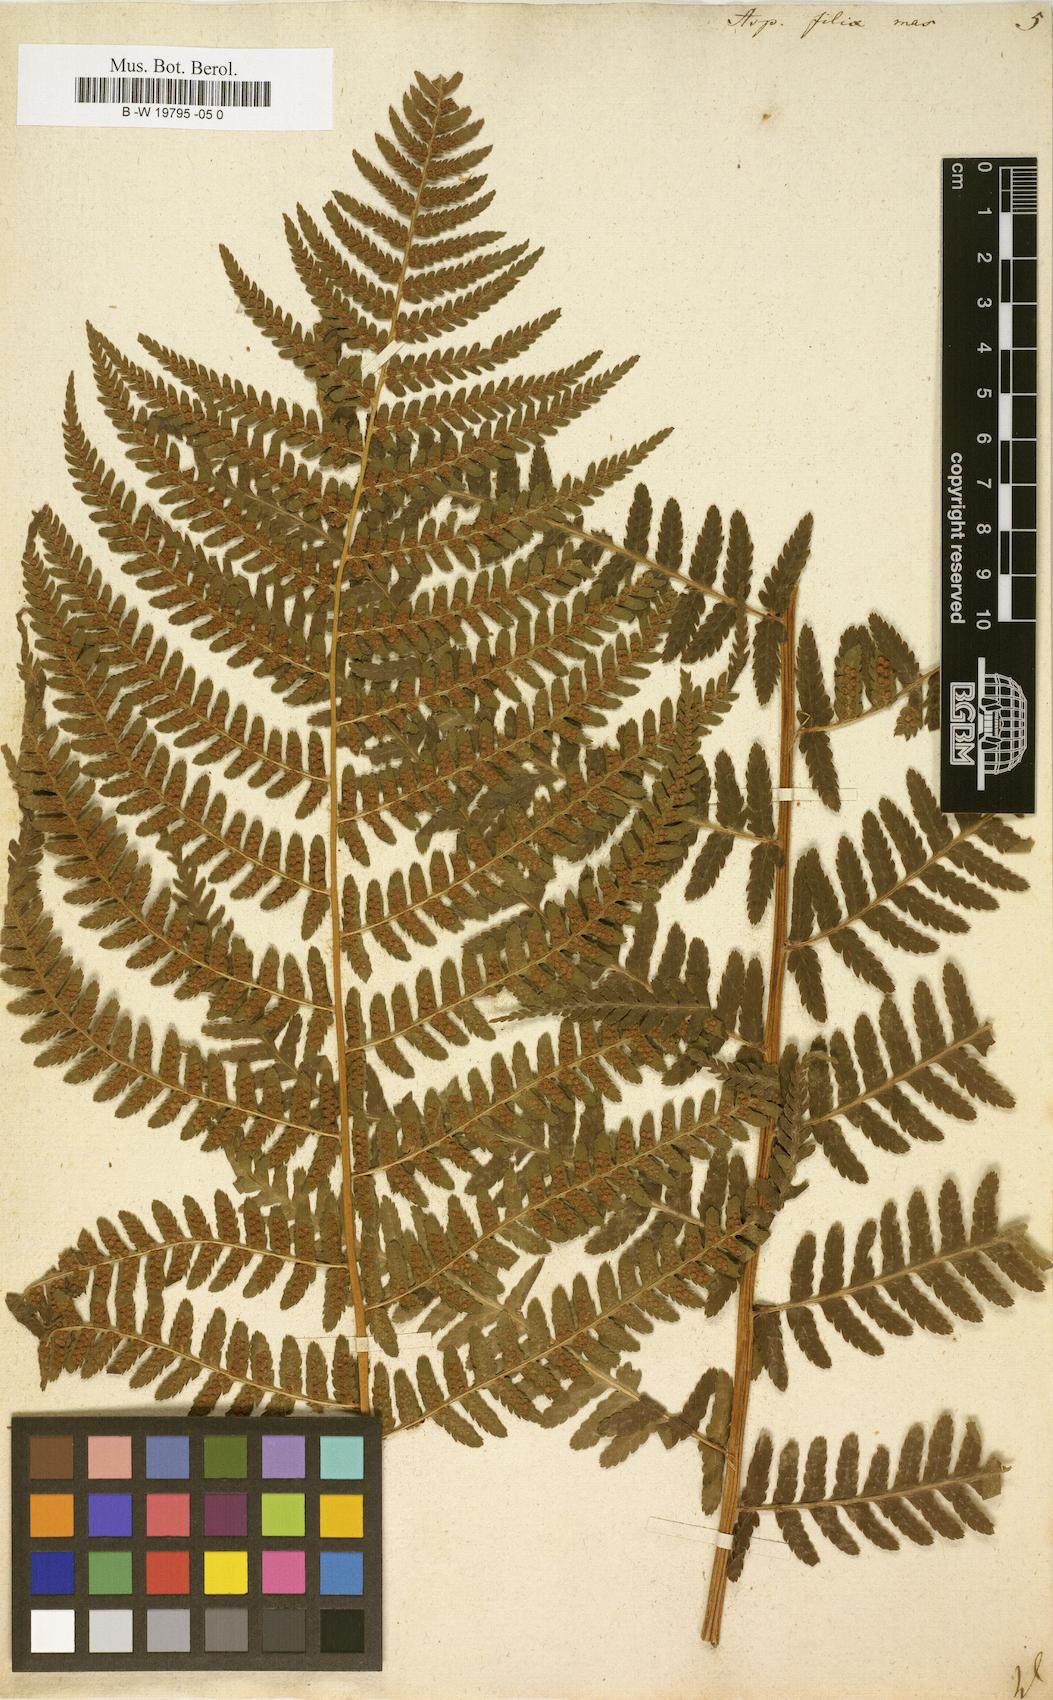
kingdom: Plantae
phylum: Tracheophyta
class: Polypodiopsida
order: Polypodiales
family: Dryopteridaceae
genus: Dryopteris
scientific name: Dryopteris filix-mas
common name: Male fern
